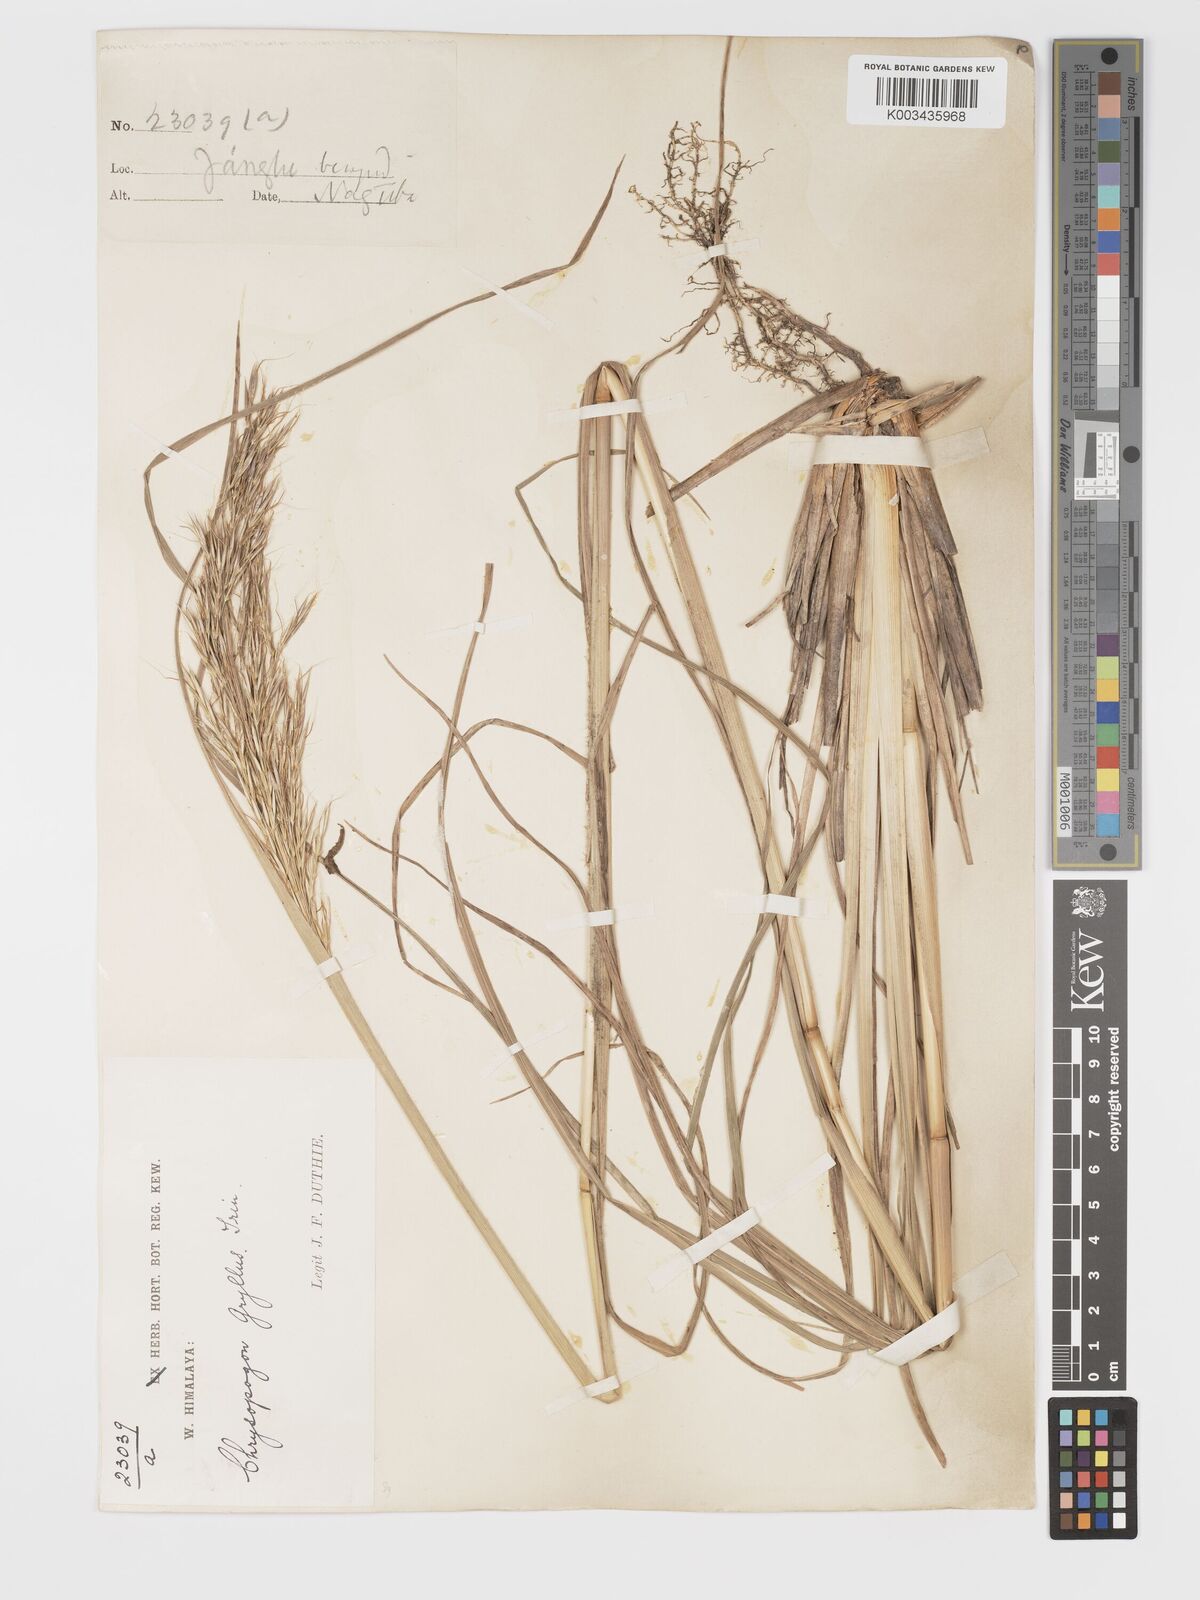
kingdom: Plantae
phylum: Tracheophyta
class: Liliopsida
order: Poales
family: Poaceae
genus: Chrysopogon
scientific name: Chrysopogon gryllus
